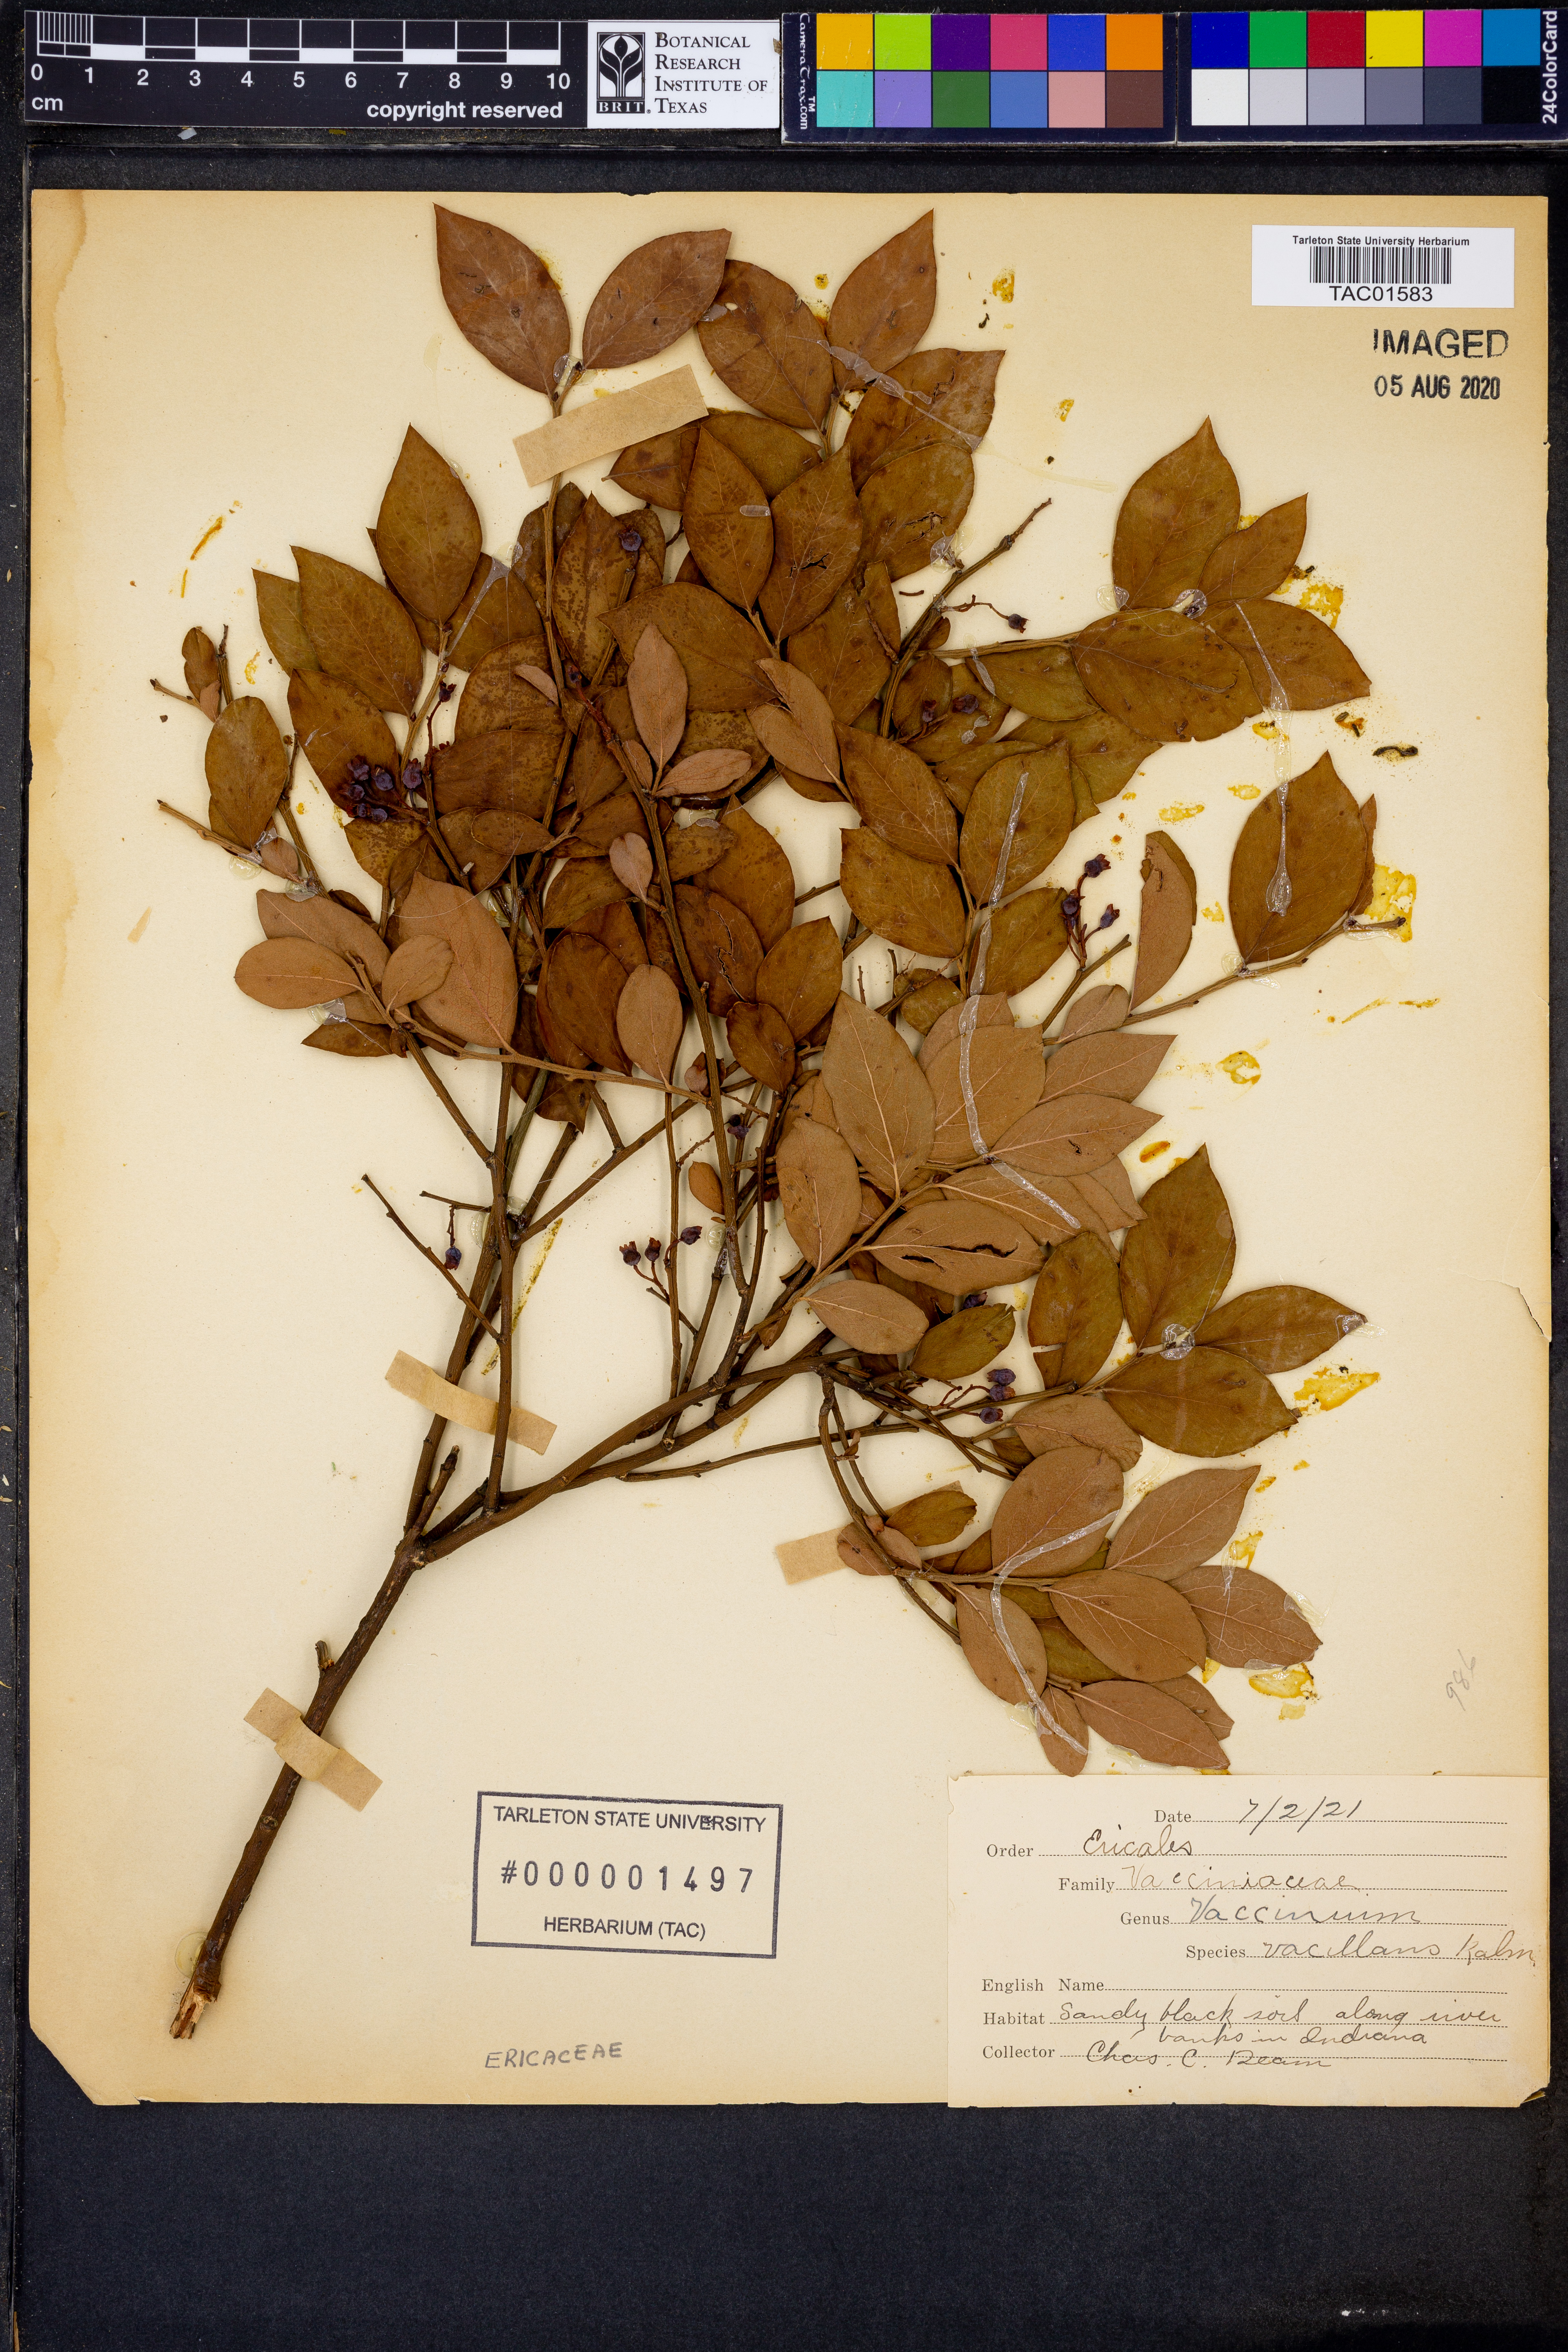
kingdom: Plantae
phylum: Tracheophyta
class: Magnoliopsida
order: Ericales
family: Ericaceae
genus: Vaccinium
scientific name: Vaccinium pallidum
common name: Blue ridge blueberry
